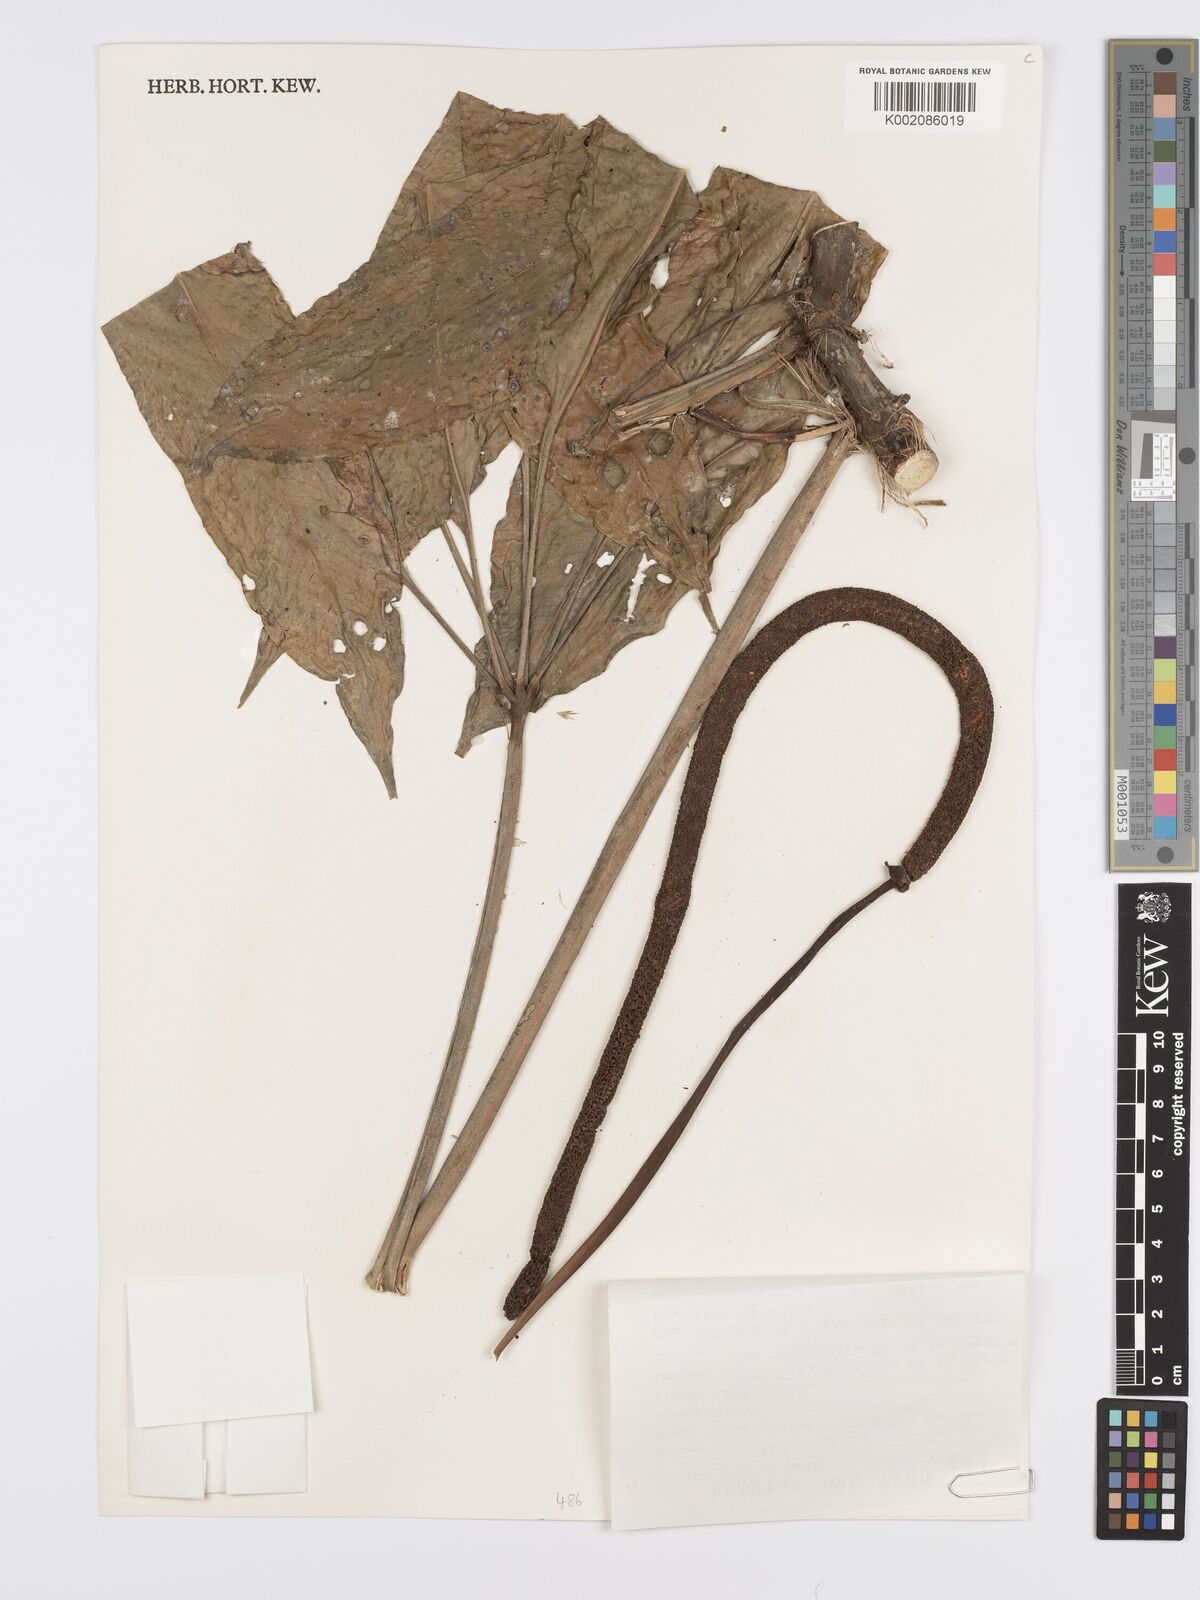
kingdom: Plantae
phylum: Tracheophyta
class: Liliopsida
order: Alismatales
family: Araceae
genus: Anthurium
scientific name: Anthurium eminens
